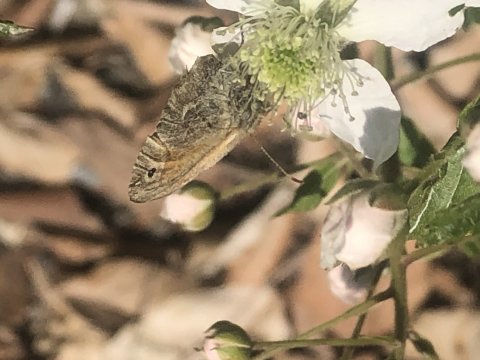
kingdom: Animalia
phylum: Arthropoda
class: Insecta
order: Lepidoptera
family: Nymphalidae
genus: Coenonympha
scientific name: Coenonympha tullia
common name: Large Heath
